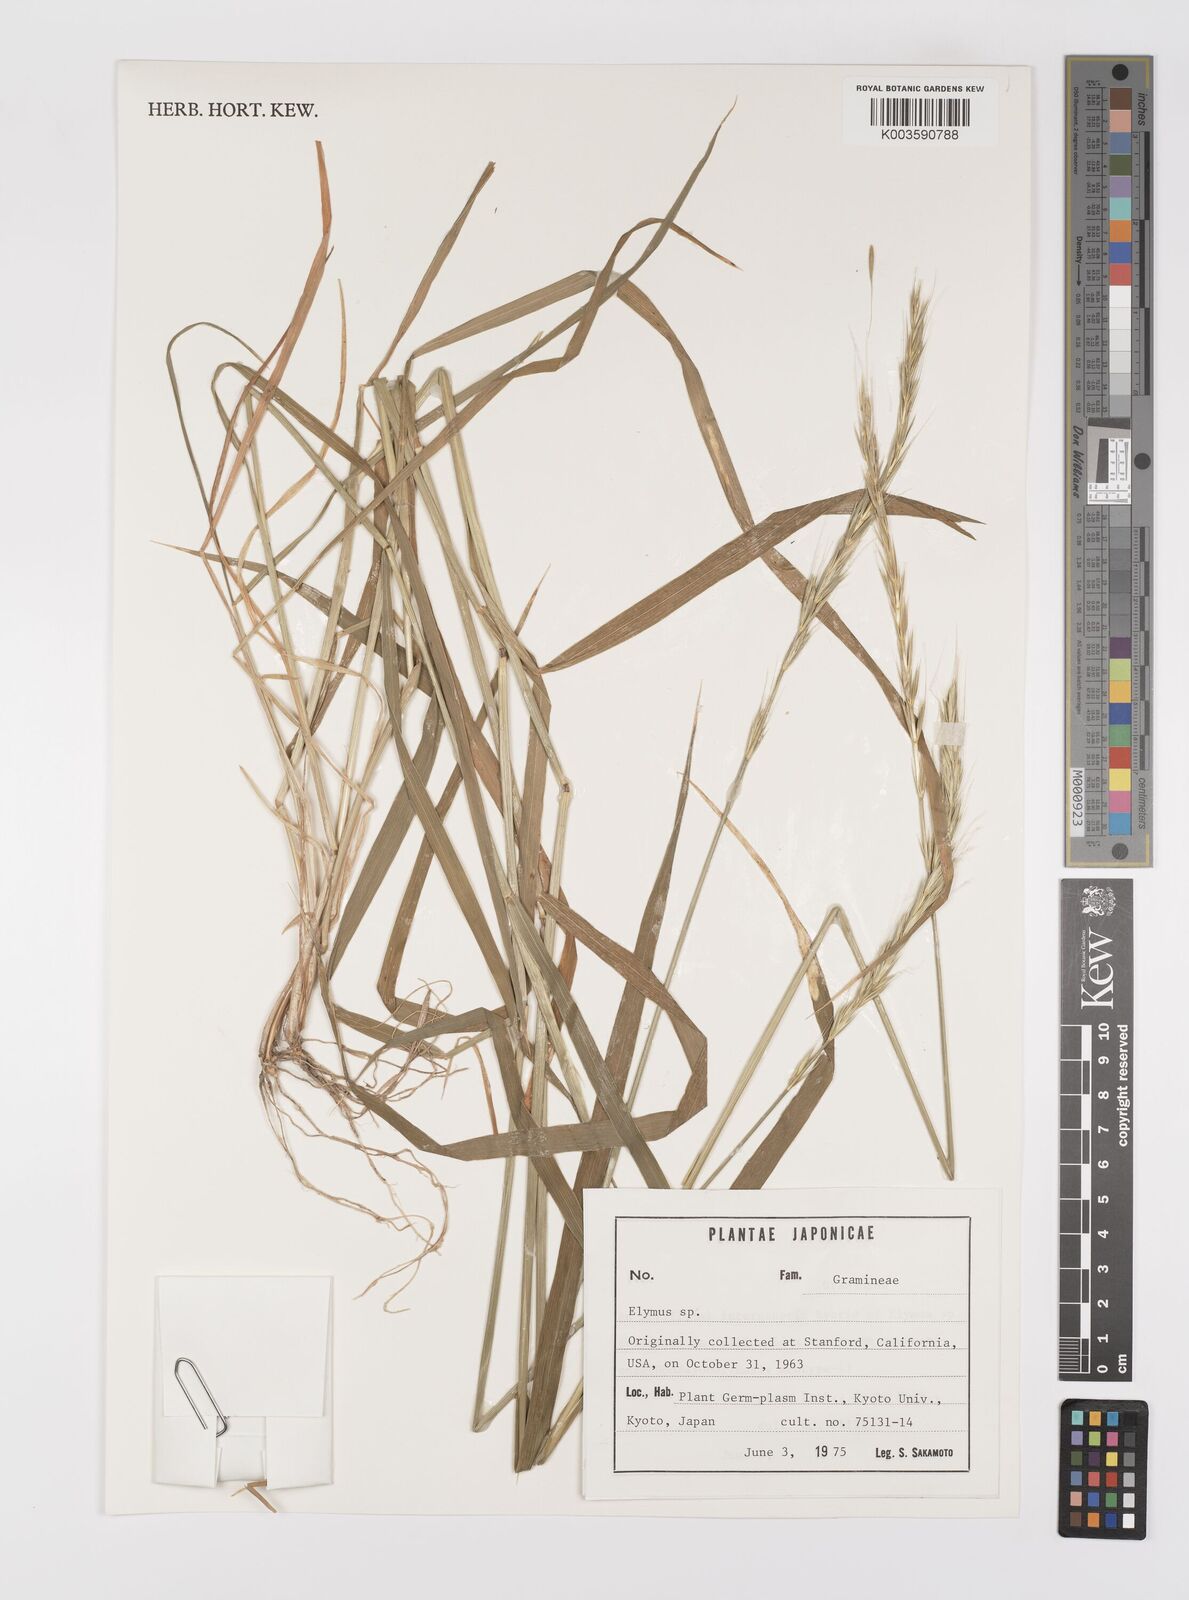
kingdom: Plantae
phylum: Tracheophyta
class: Liliopsida
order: Poales
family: Poaceae
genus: Elymus
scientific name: Elymus
